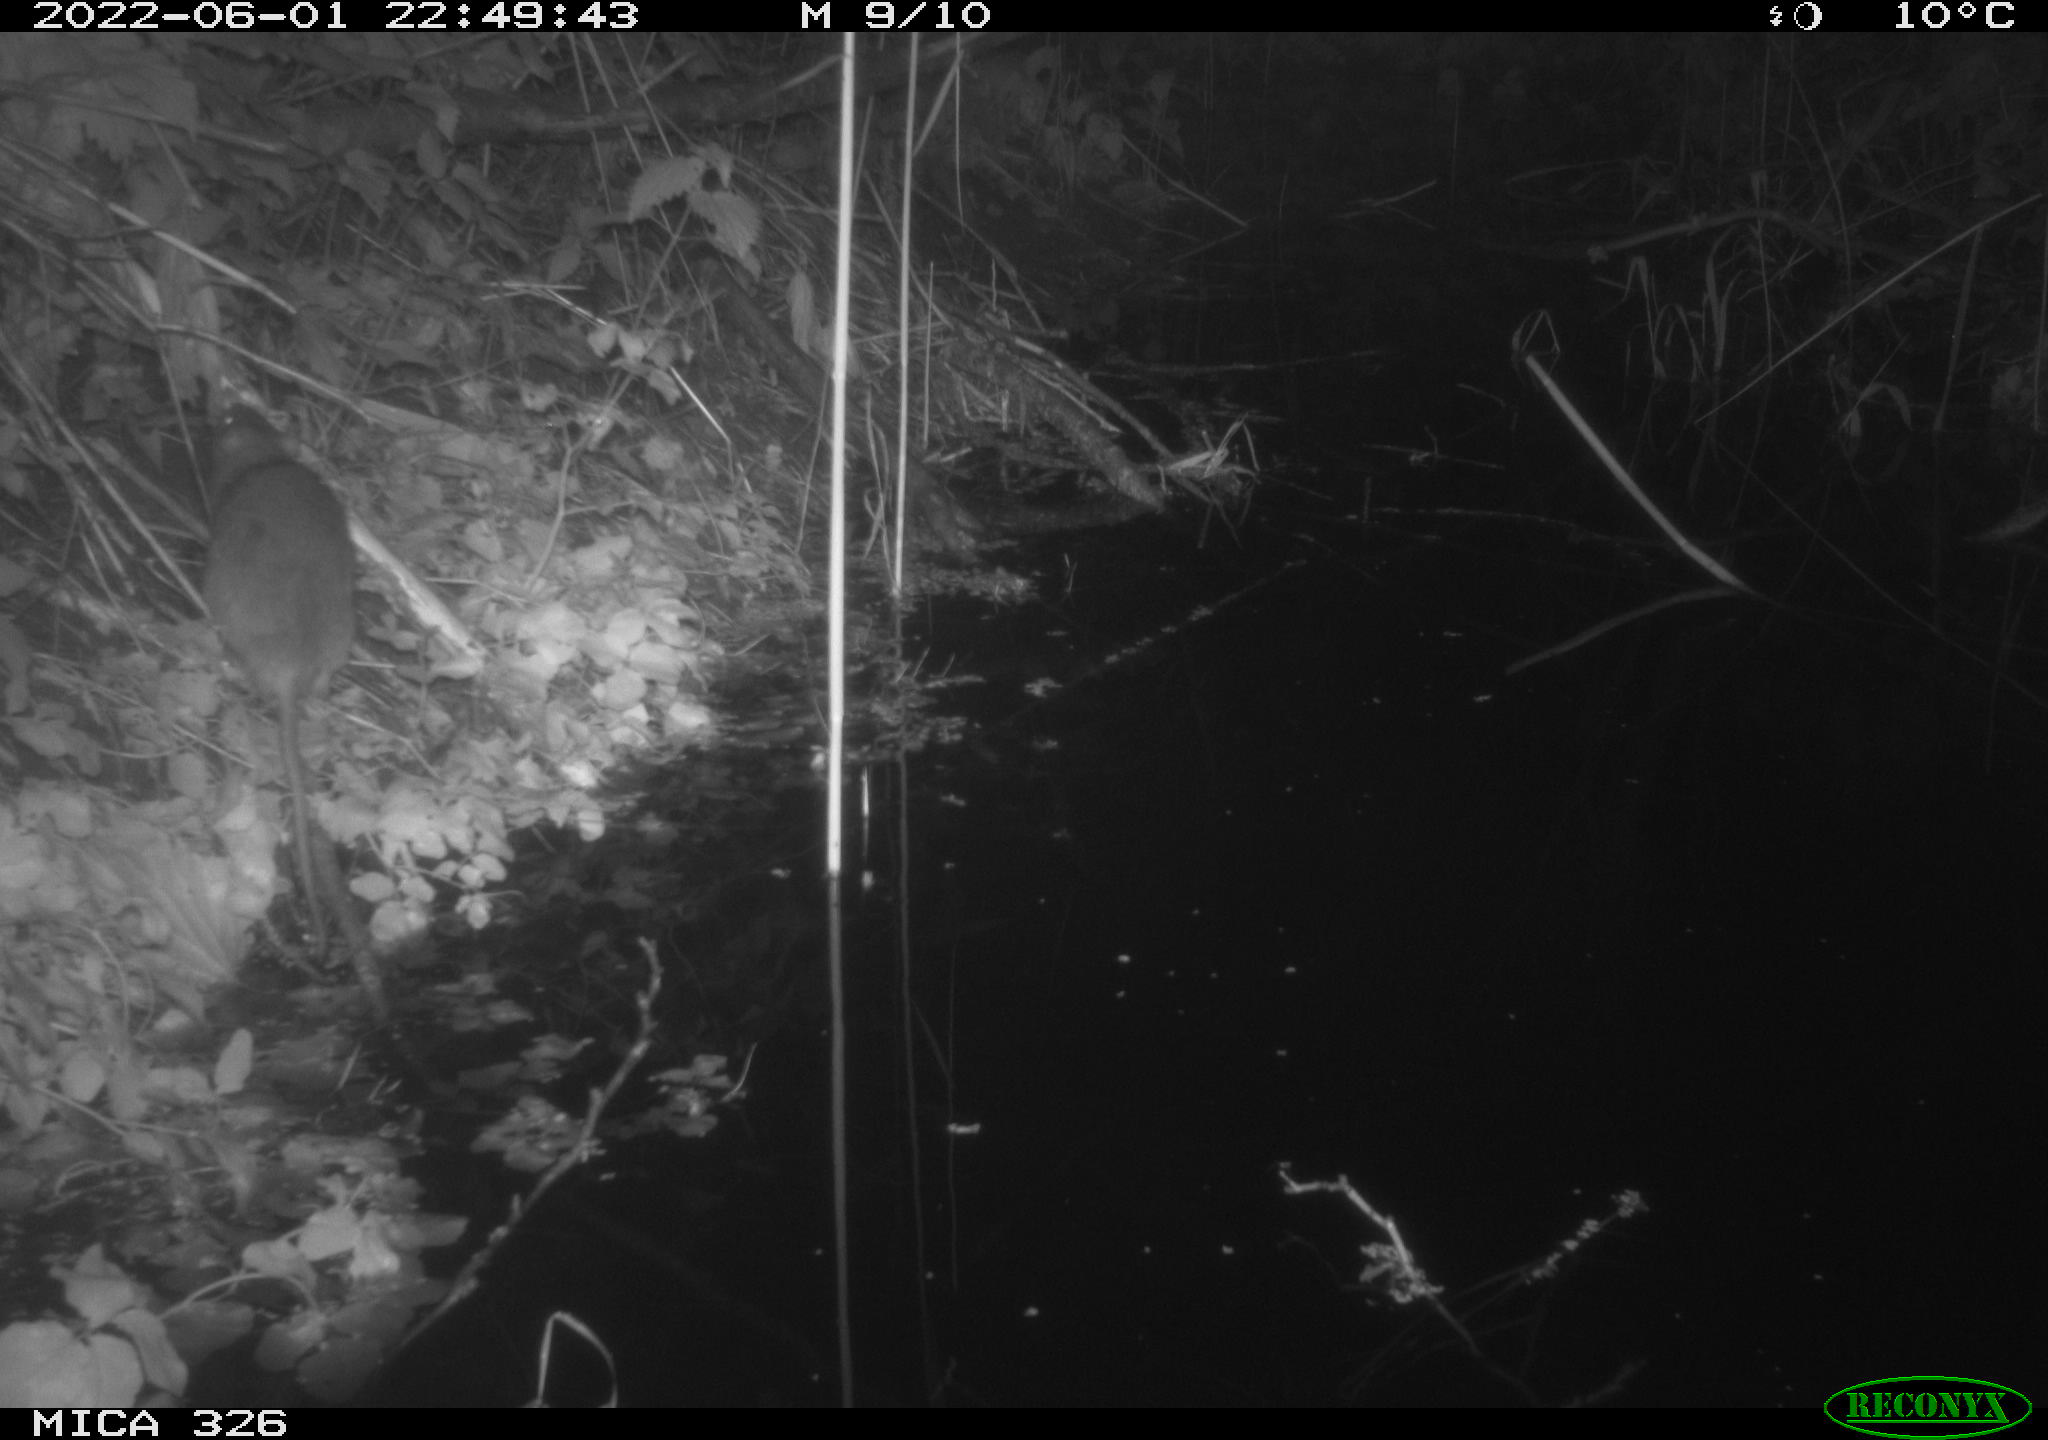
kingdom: Animalia
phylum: Chordata
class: Mammalia
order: Rodentia
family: Muridae
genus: Rattus
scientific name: Rattus norvegicus
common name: Brown rat
